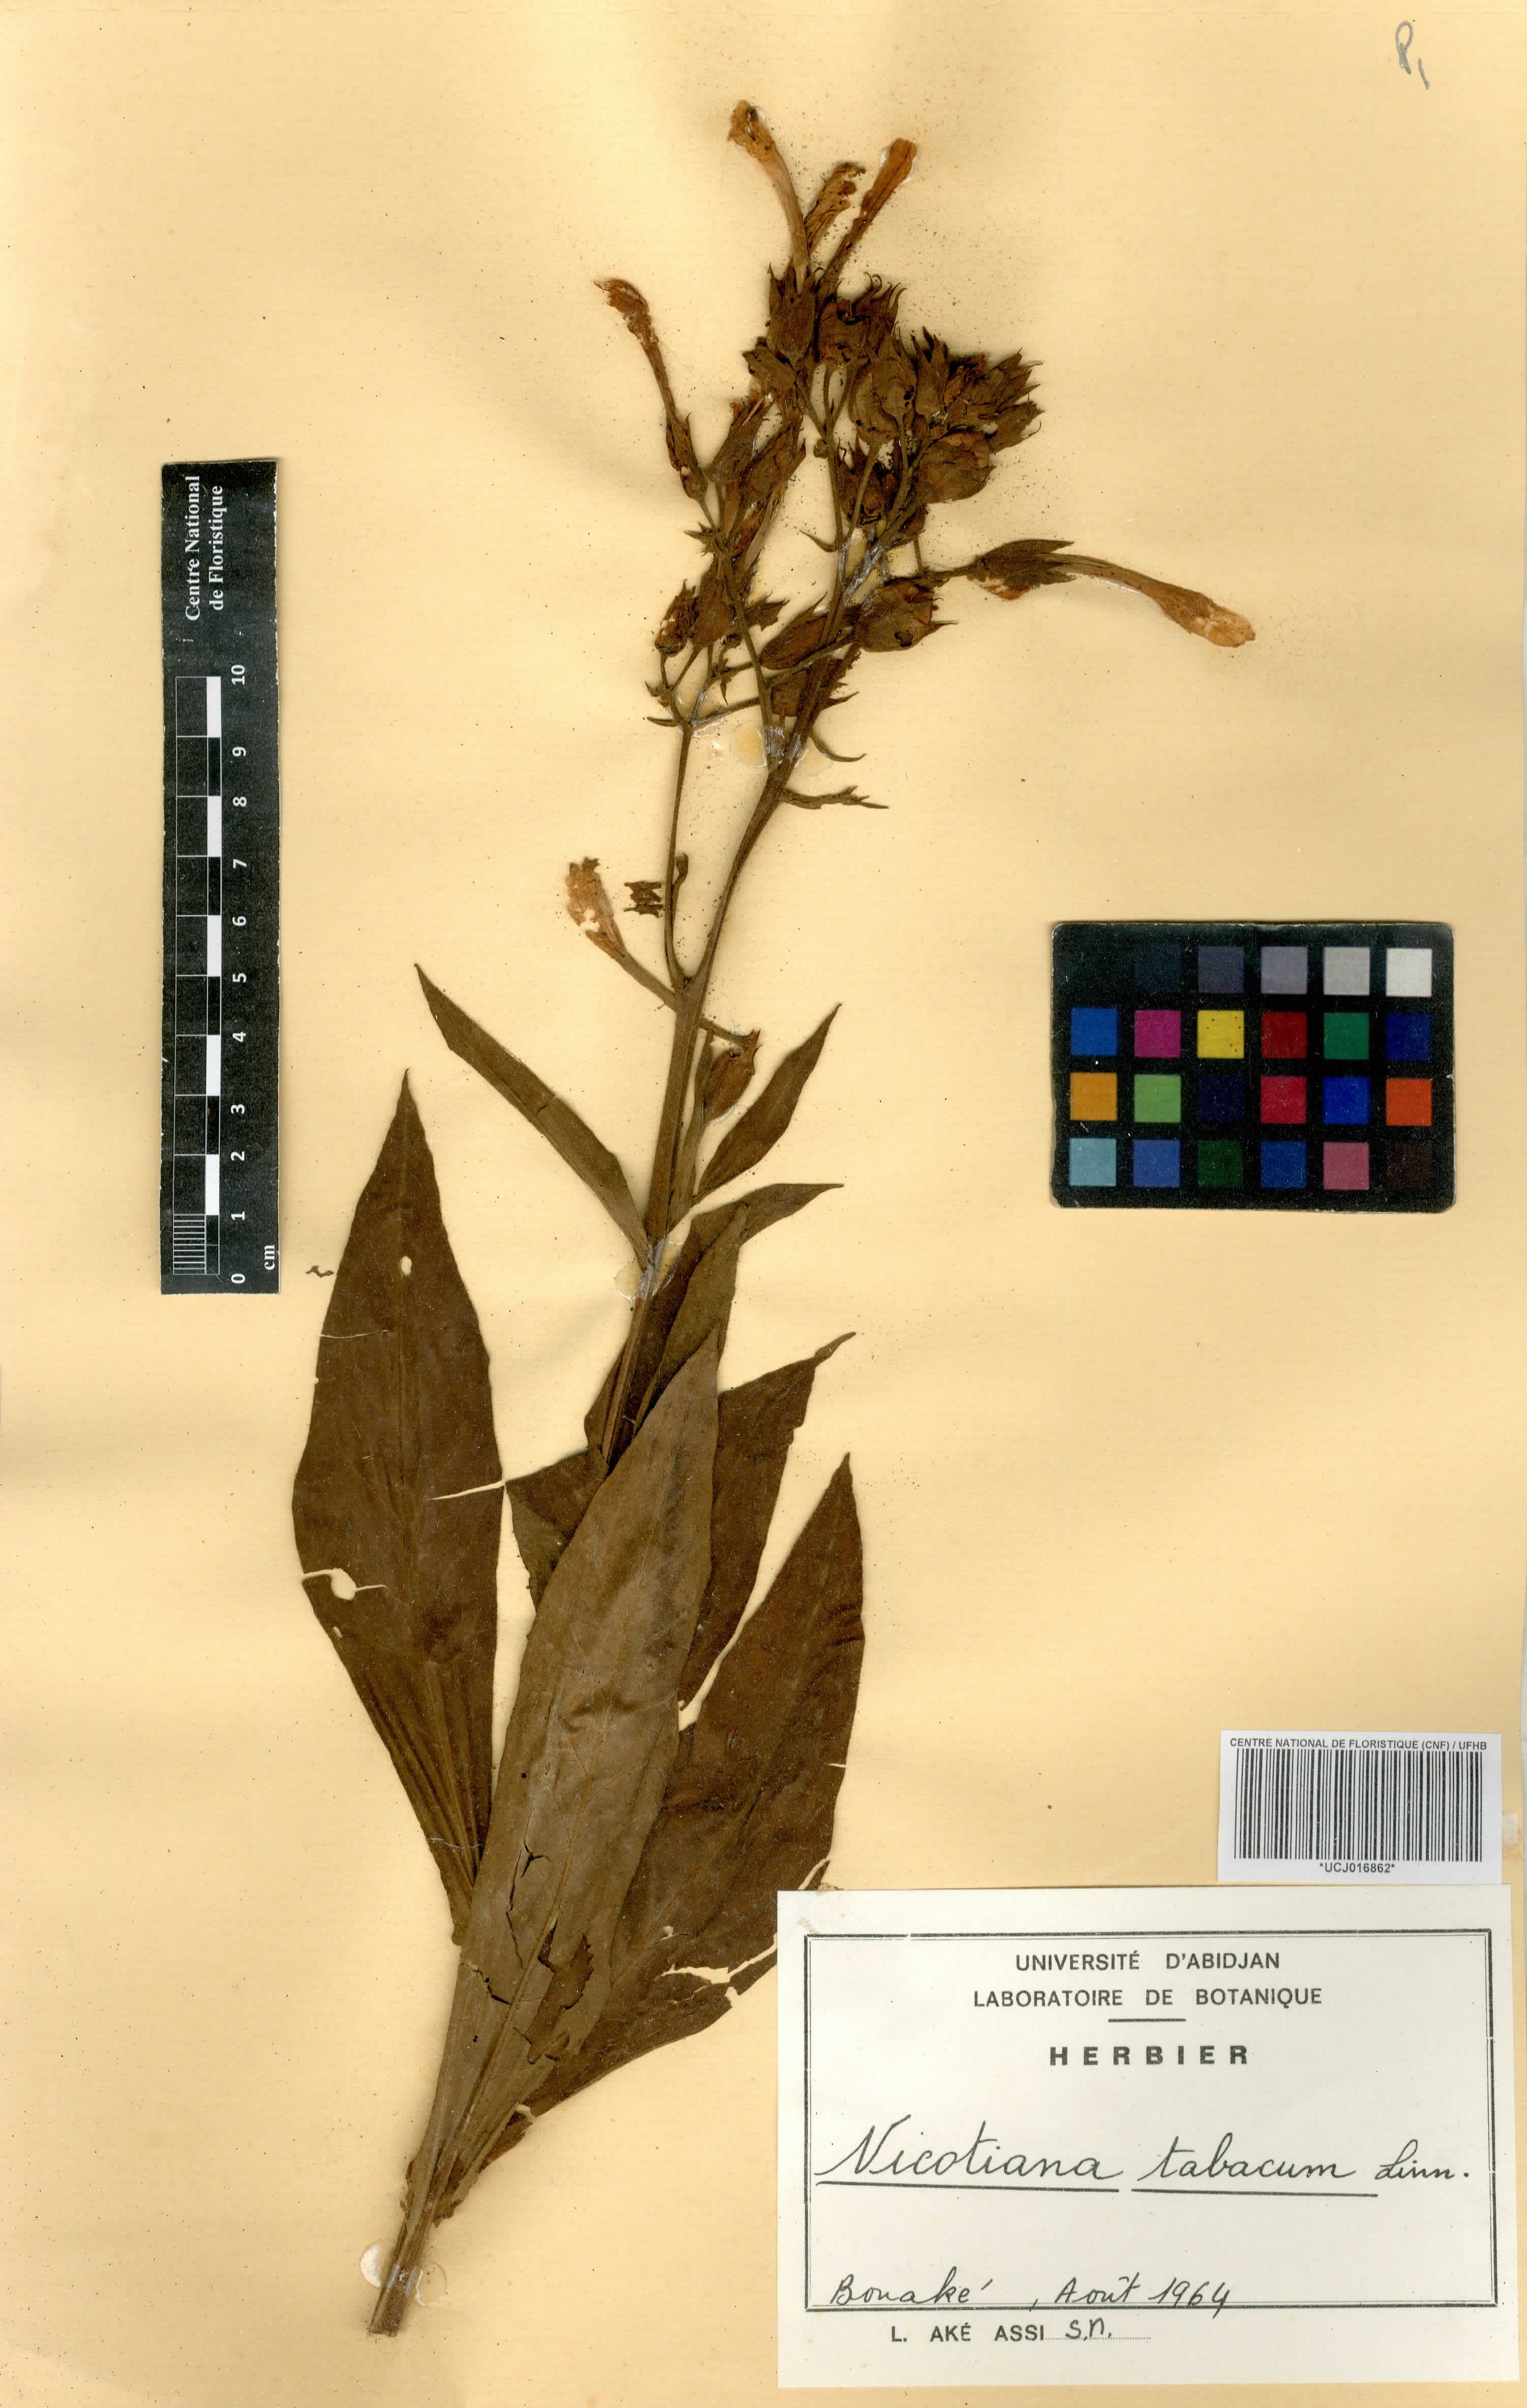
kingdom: Plantae
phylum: Tracheophyta
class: Magnoliopsida
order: Solanales
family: Solanaceae
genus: Nicotiana
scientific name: Nicotiana tabacum
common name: Tobacco
